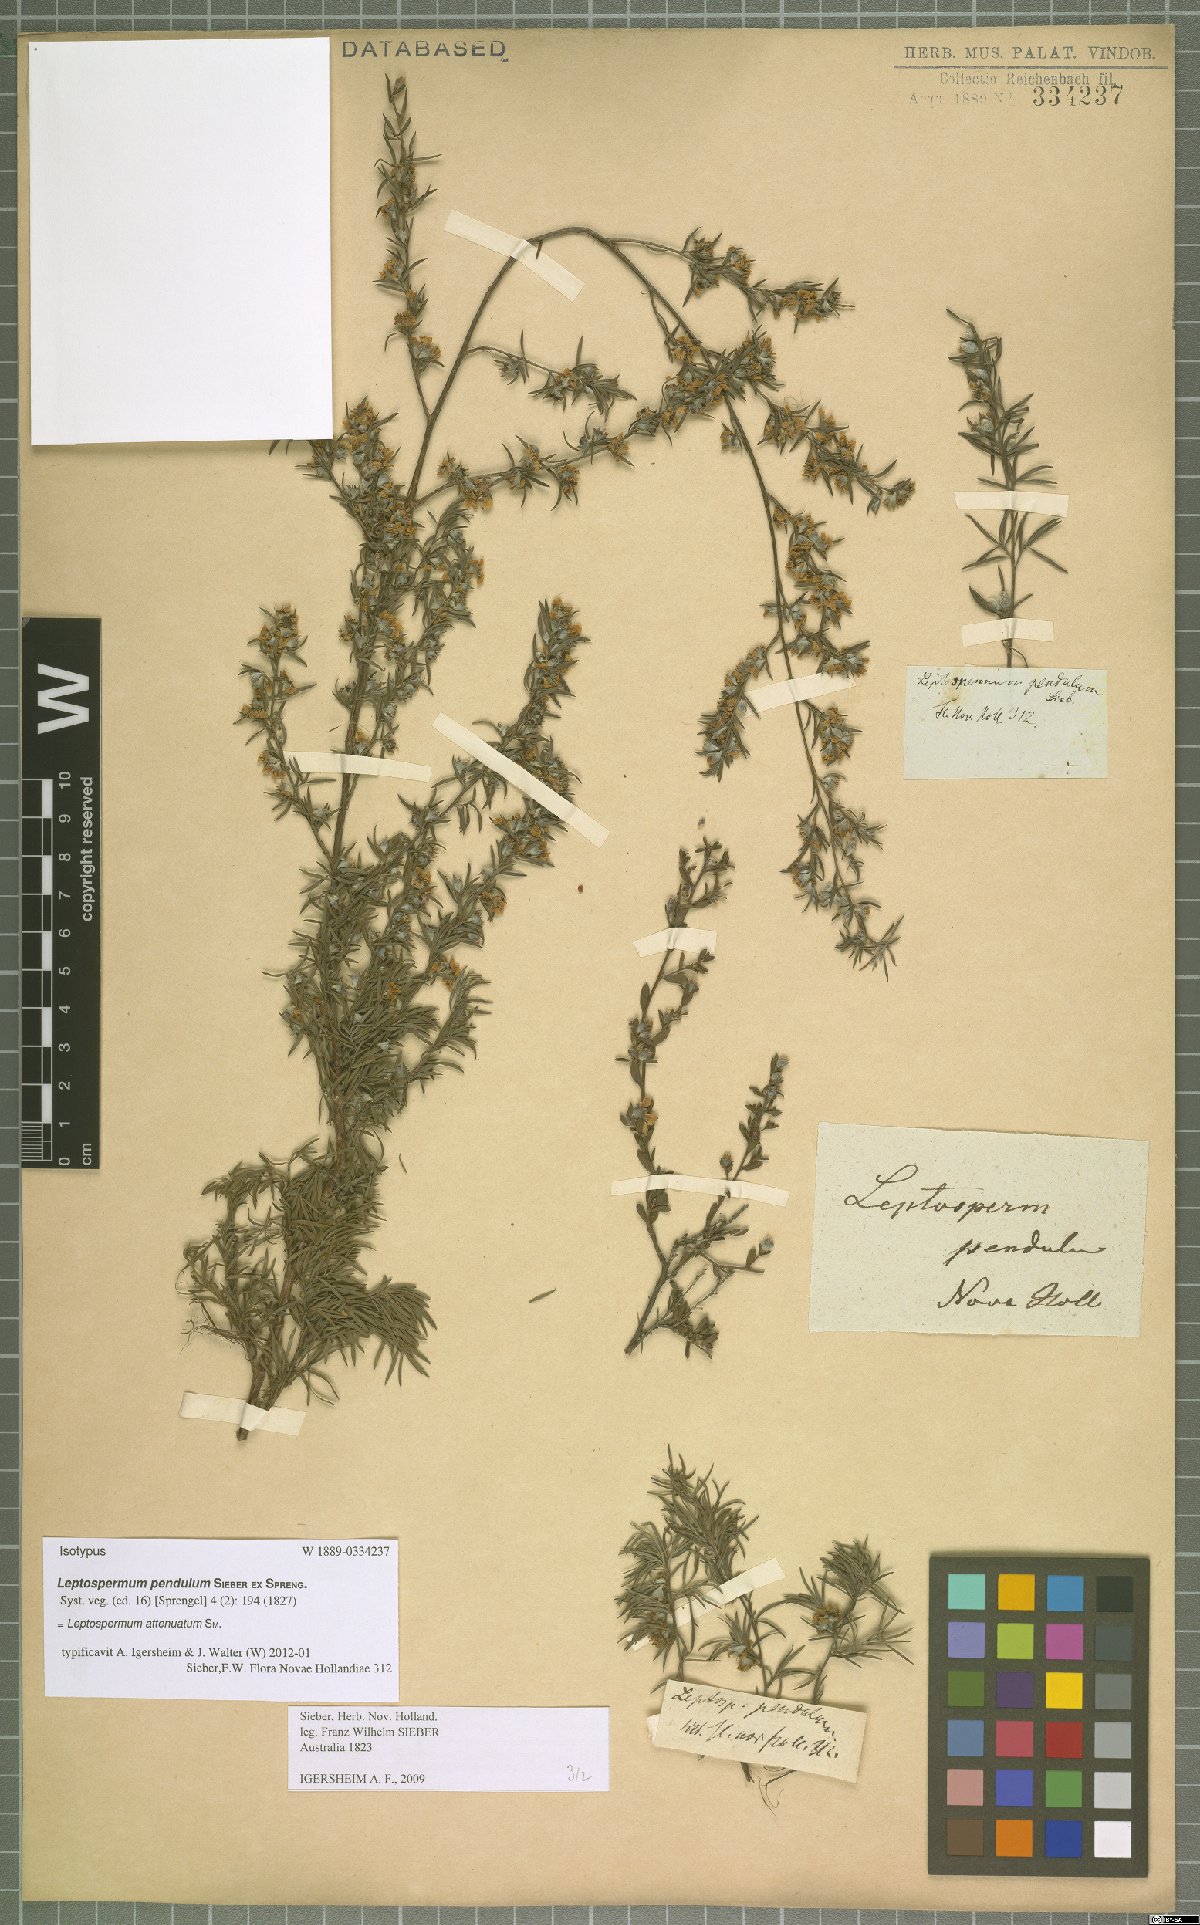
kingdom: Plantae
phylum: Tracheophyta
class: Magnoliopsida
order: Myrtales
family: Myrtaceae
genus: Leptospermum
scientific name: Leptospermum trinervium
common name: Flaky-barked tea-tree
